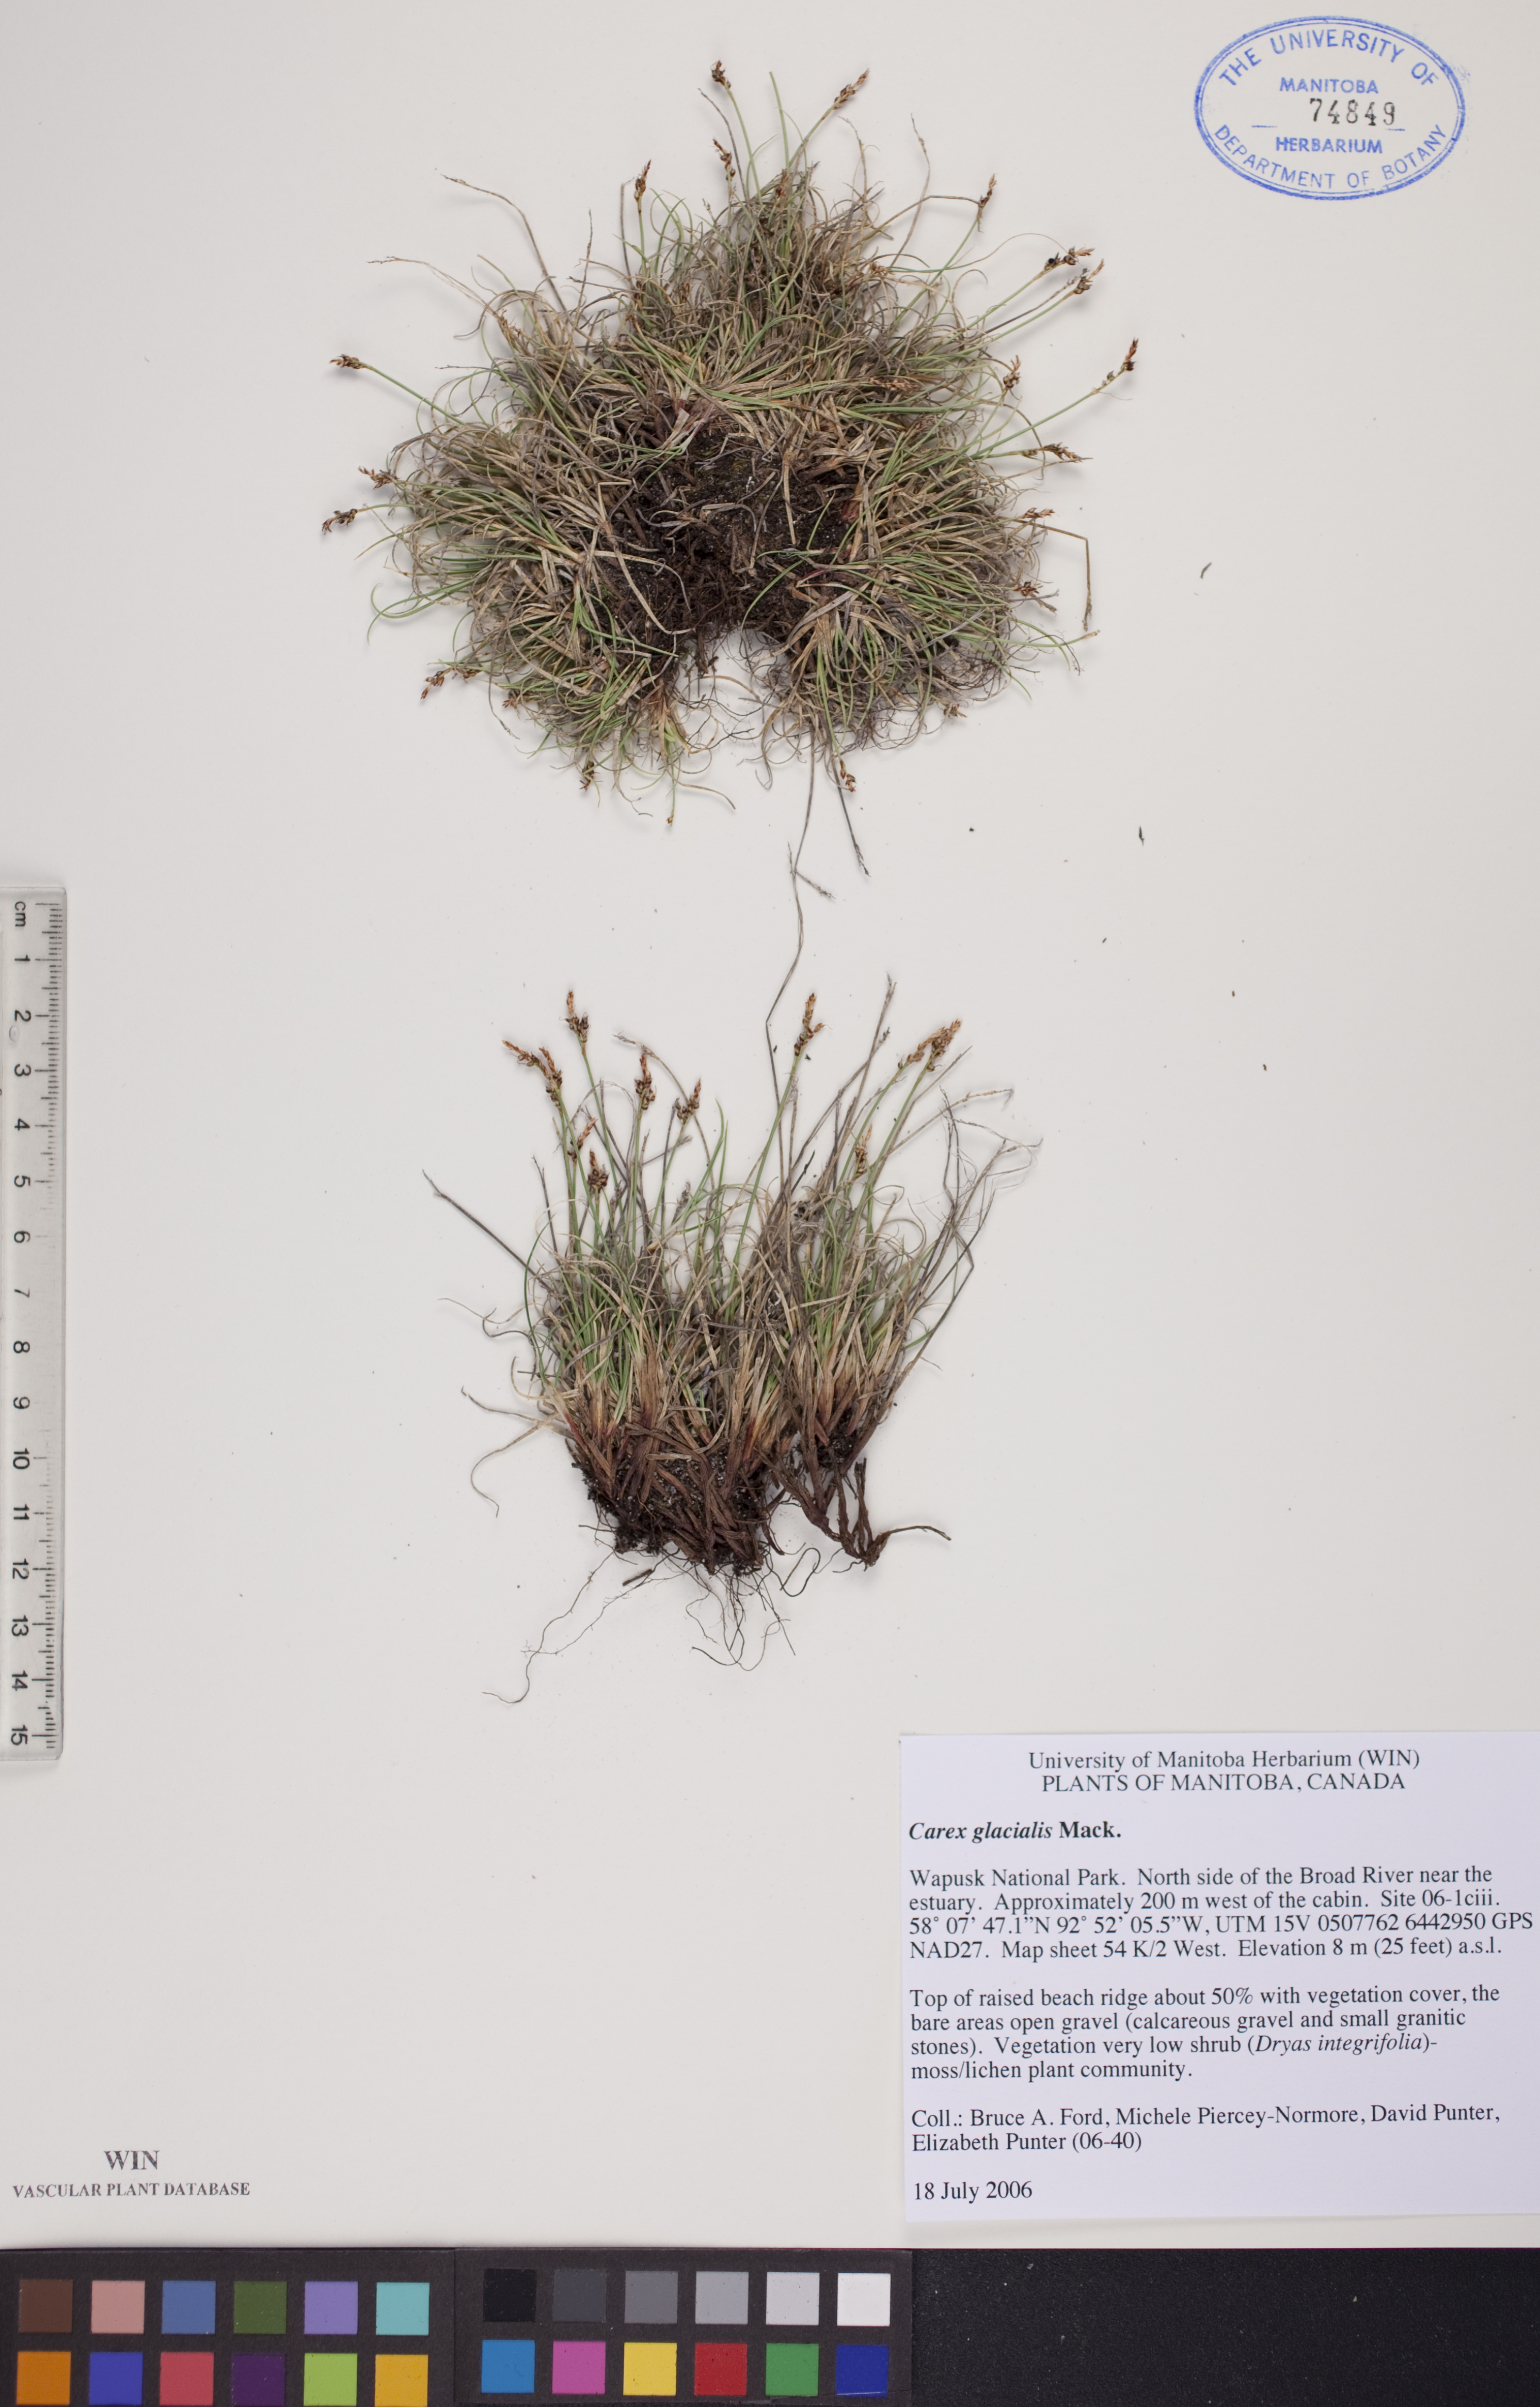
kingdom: Plantae
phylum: Tracheophyta
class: Liliopsida
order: Poales
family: Cyperaceae
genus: Carex
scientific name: Carex glacialis
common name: Newfoundland sedge
